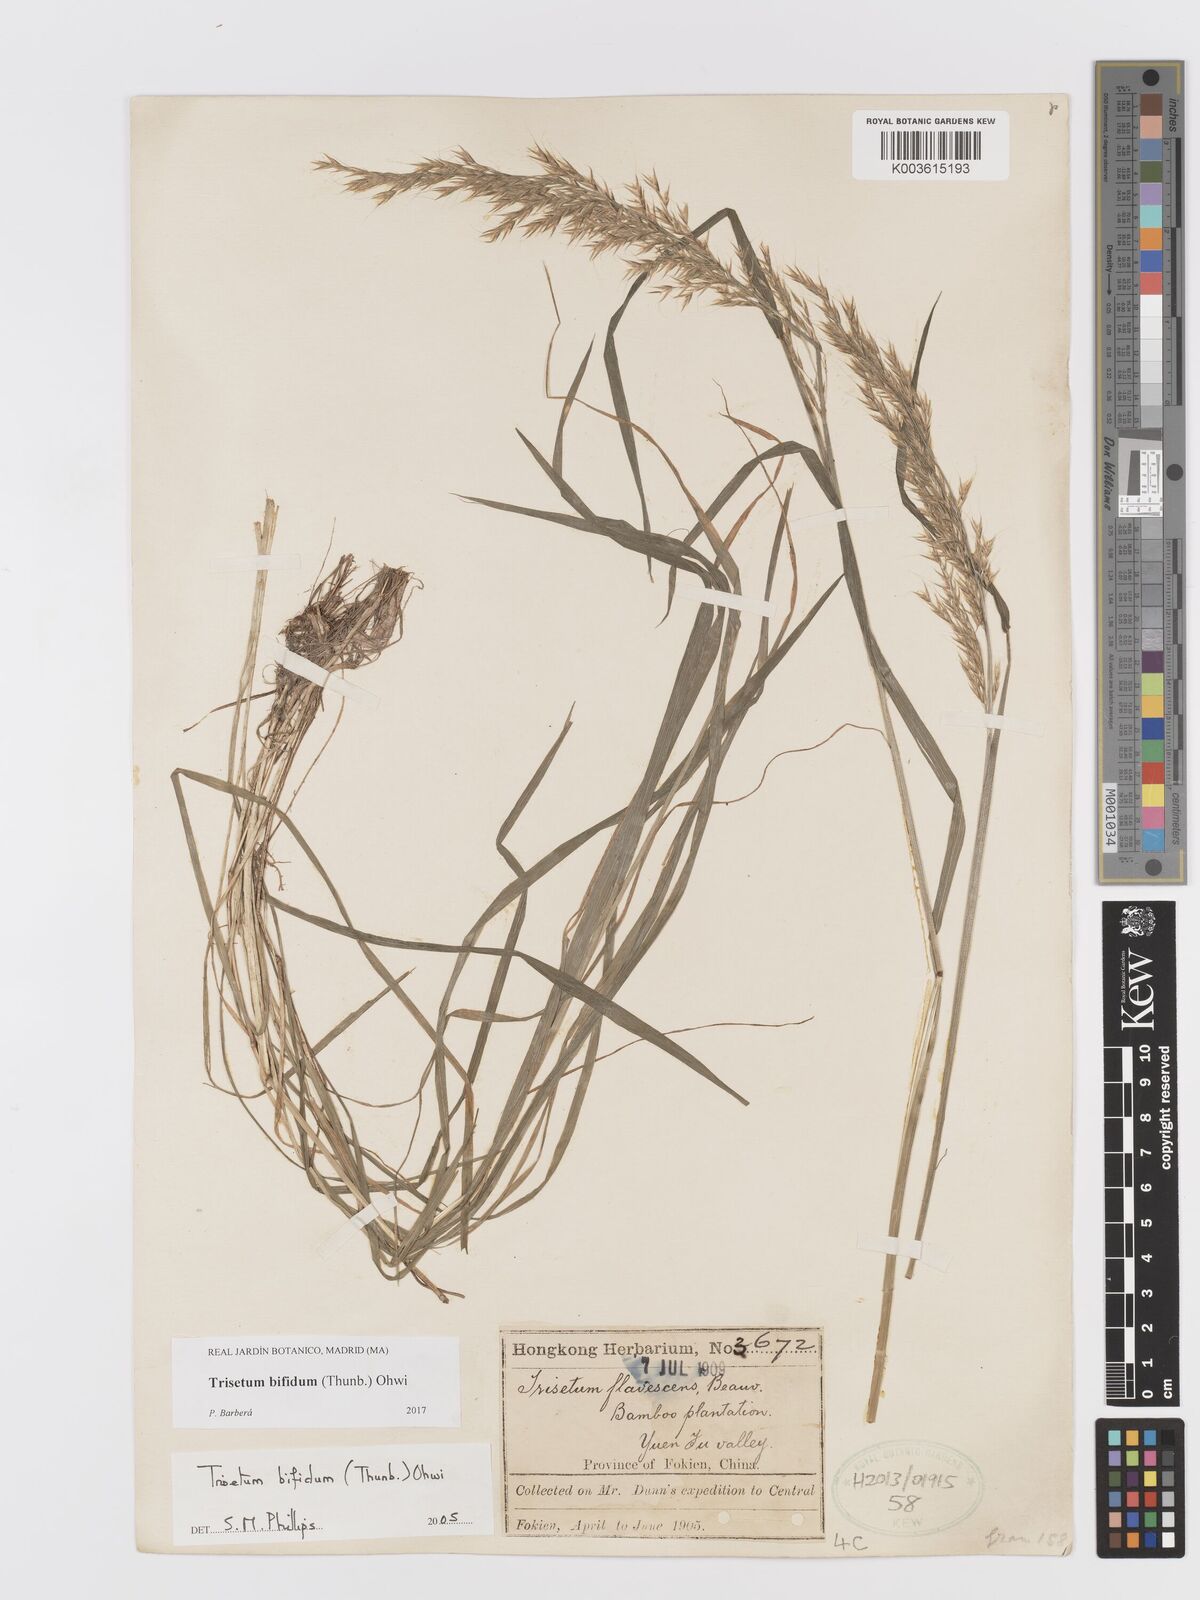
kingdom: Plantae
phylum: Tracheophyta
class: Liliopsida
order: Poales
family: Poaceae
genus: Sibirotrisetum
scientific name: Sibirotrisetum bifidum
